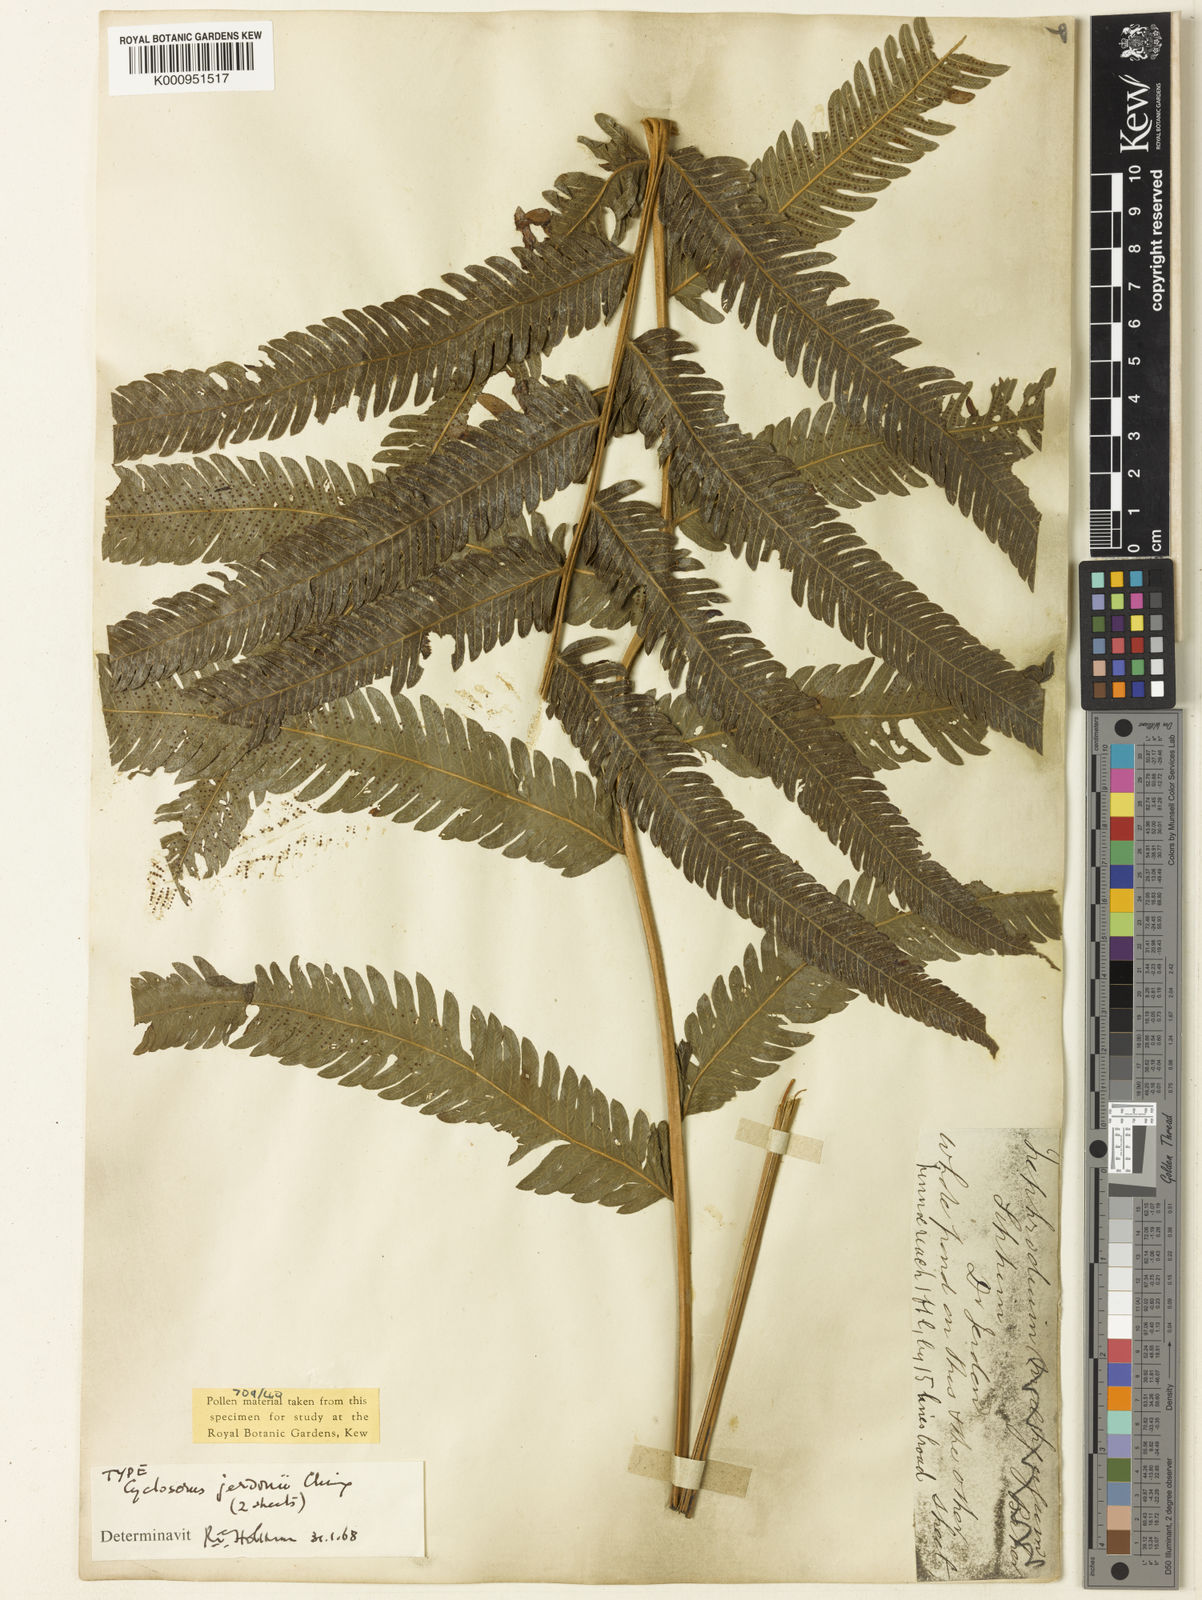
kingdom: Plantae
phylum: Tracheophyta
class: Polypodiopsida
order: Polypodiales
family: Thelypteridaceae
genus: Pronephrium
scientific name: Pronephrium
